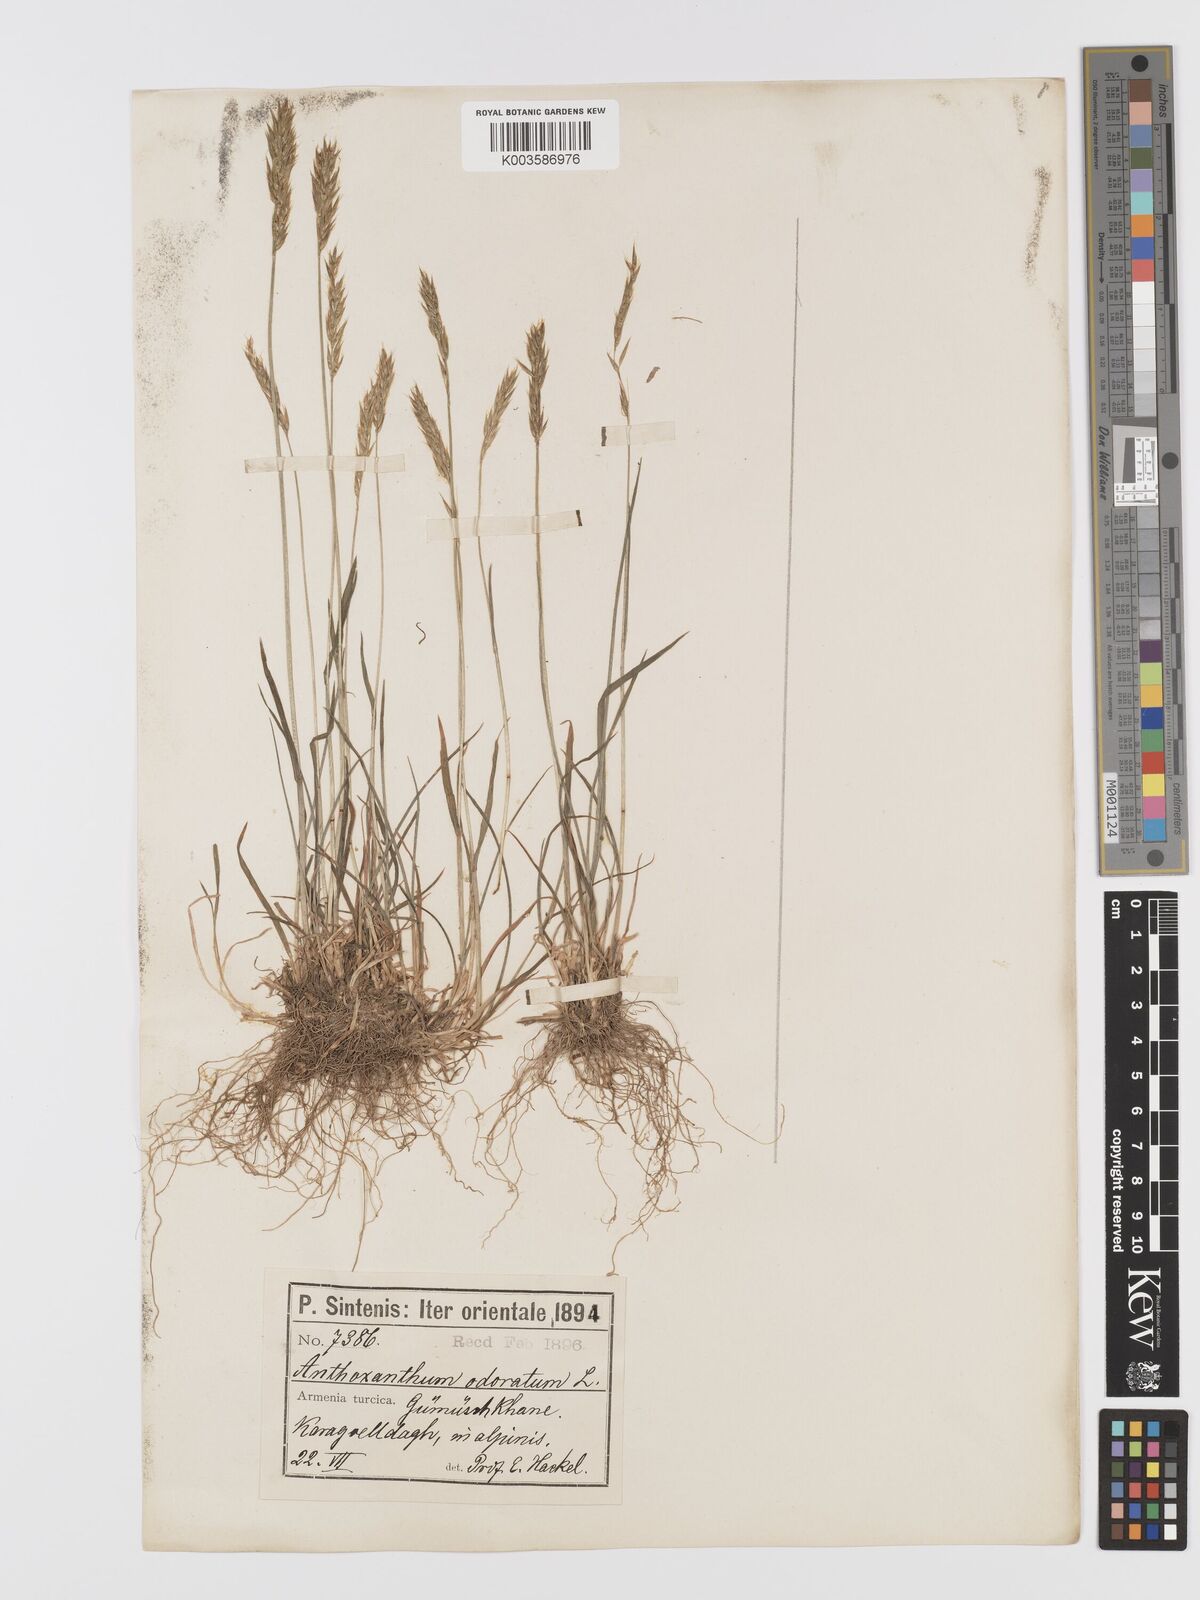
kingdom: Plantae
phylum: Tracheophyta
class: Liliopsida
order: Poales
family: Poaceae
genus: Anthoxanthum
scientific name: Anthoxanthum odoratum
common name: Sweet vernalgrass
